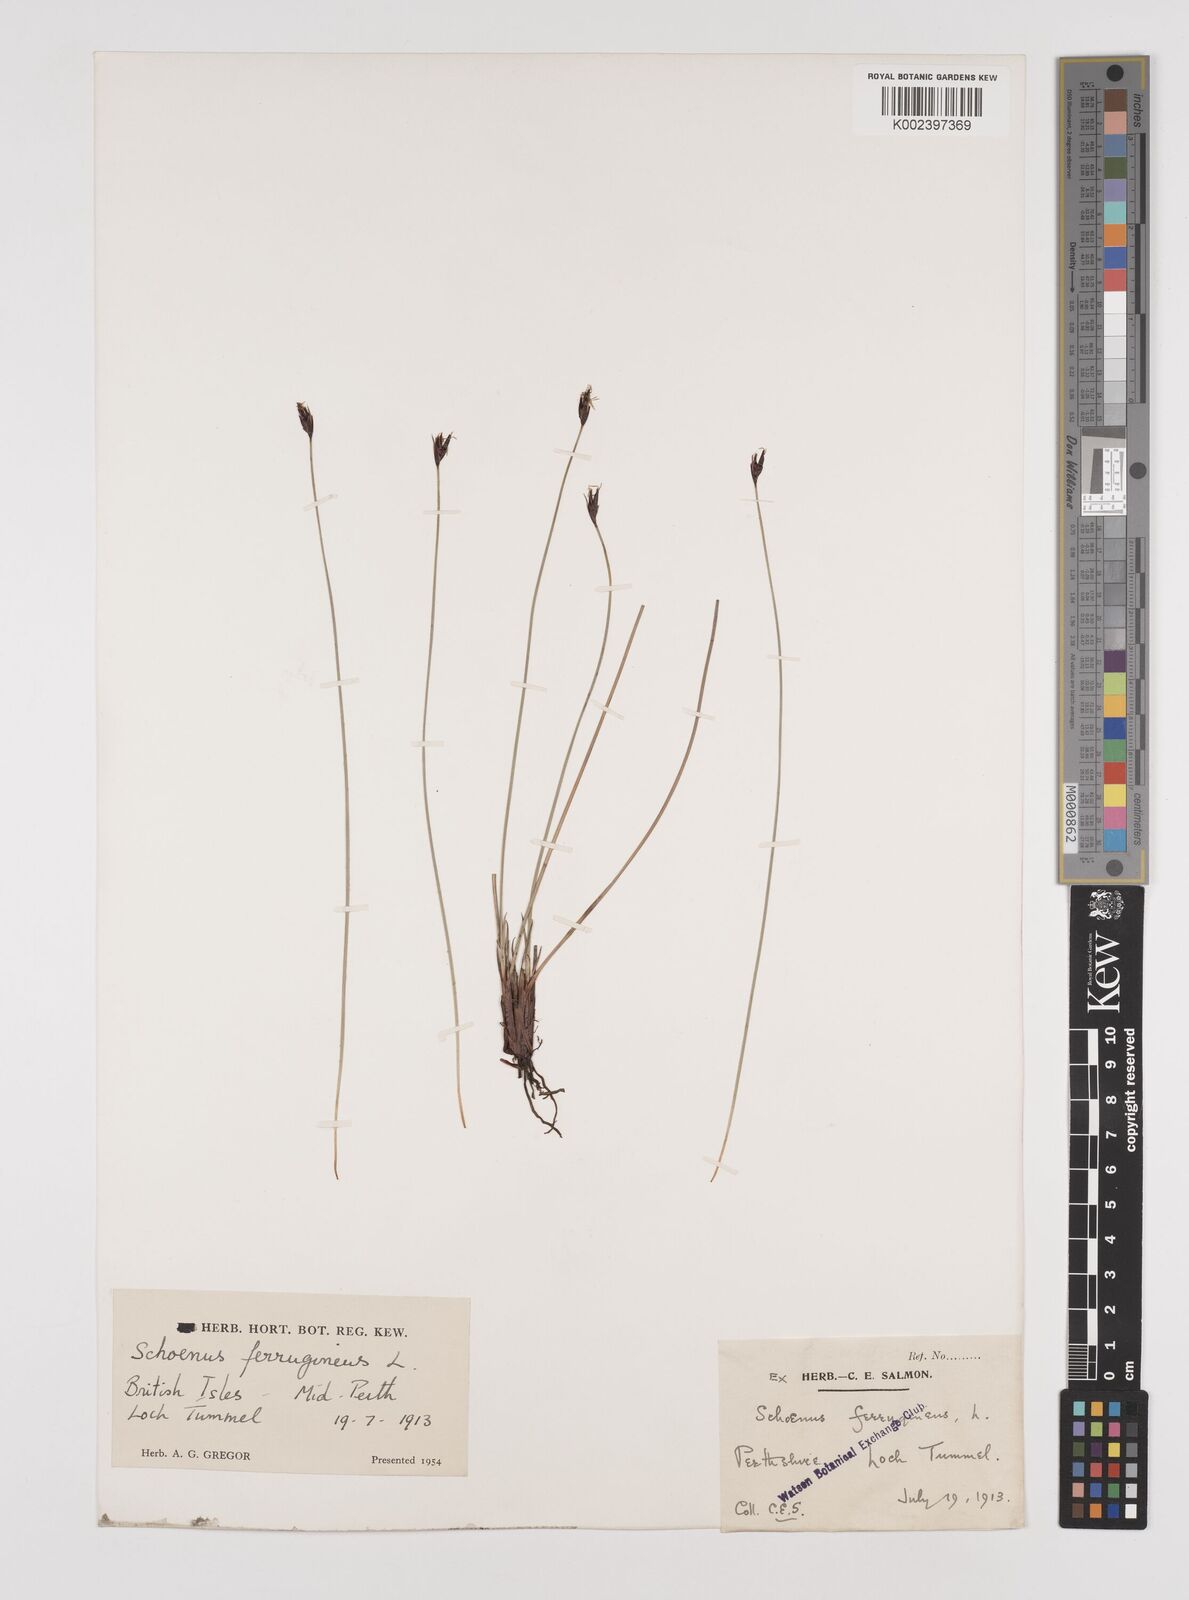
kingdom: Plantae
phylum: Tracheophyta
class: Liliopsida
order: Poales
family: Cyperaceae
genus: Schoenus
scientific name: Schoenus ferrugineus
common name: Brown bog-rush
